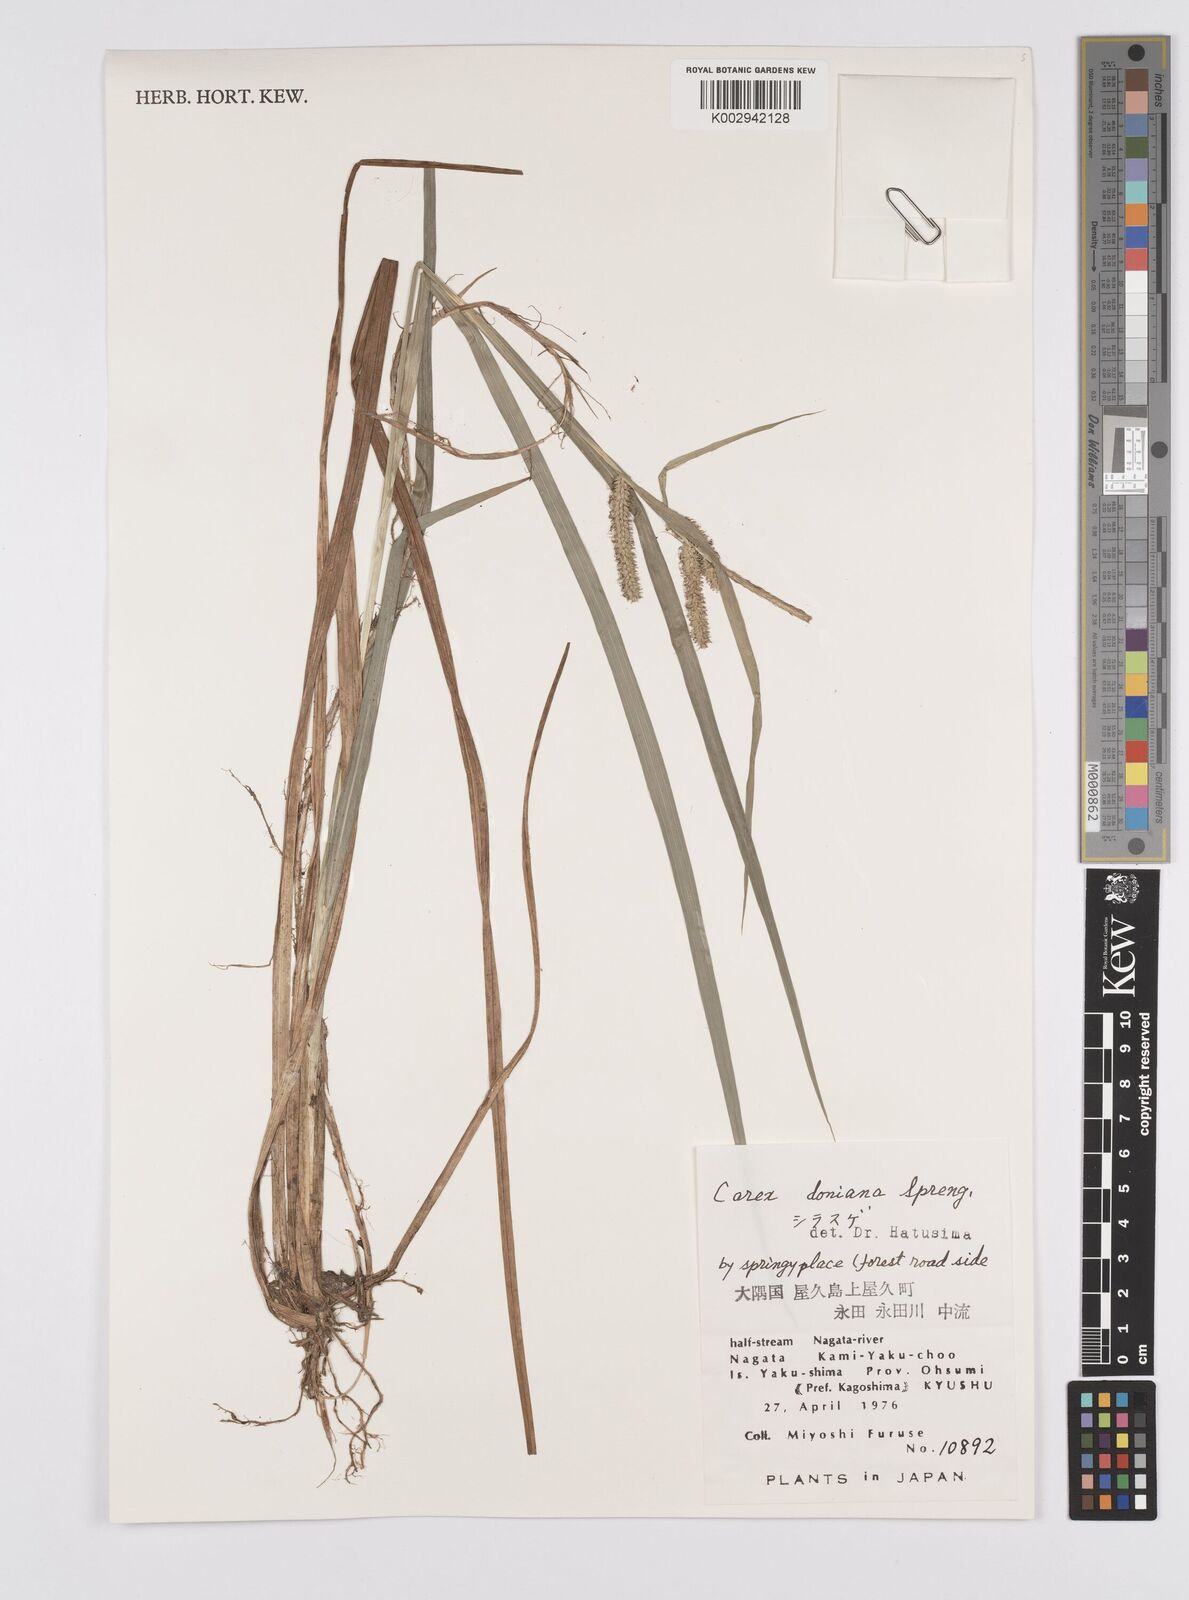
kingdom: Plantae
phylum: Tracheophyta
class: Liliopsida
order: Poales
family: Cyperaceae
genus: Carex
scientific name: Carex japonica
